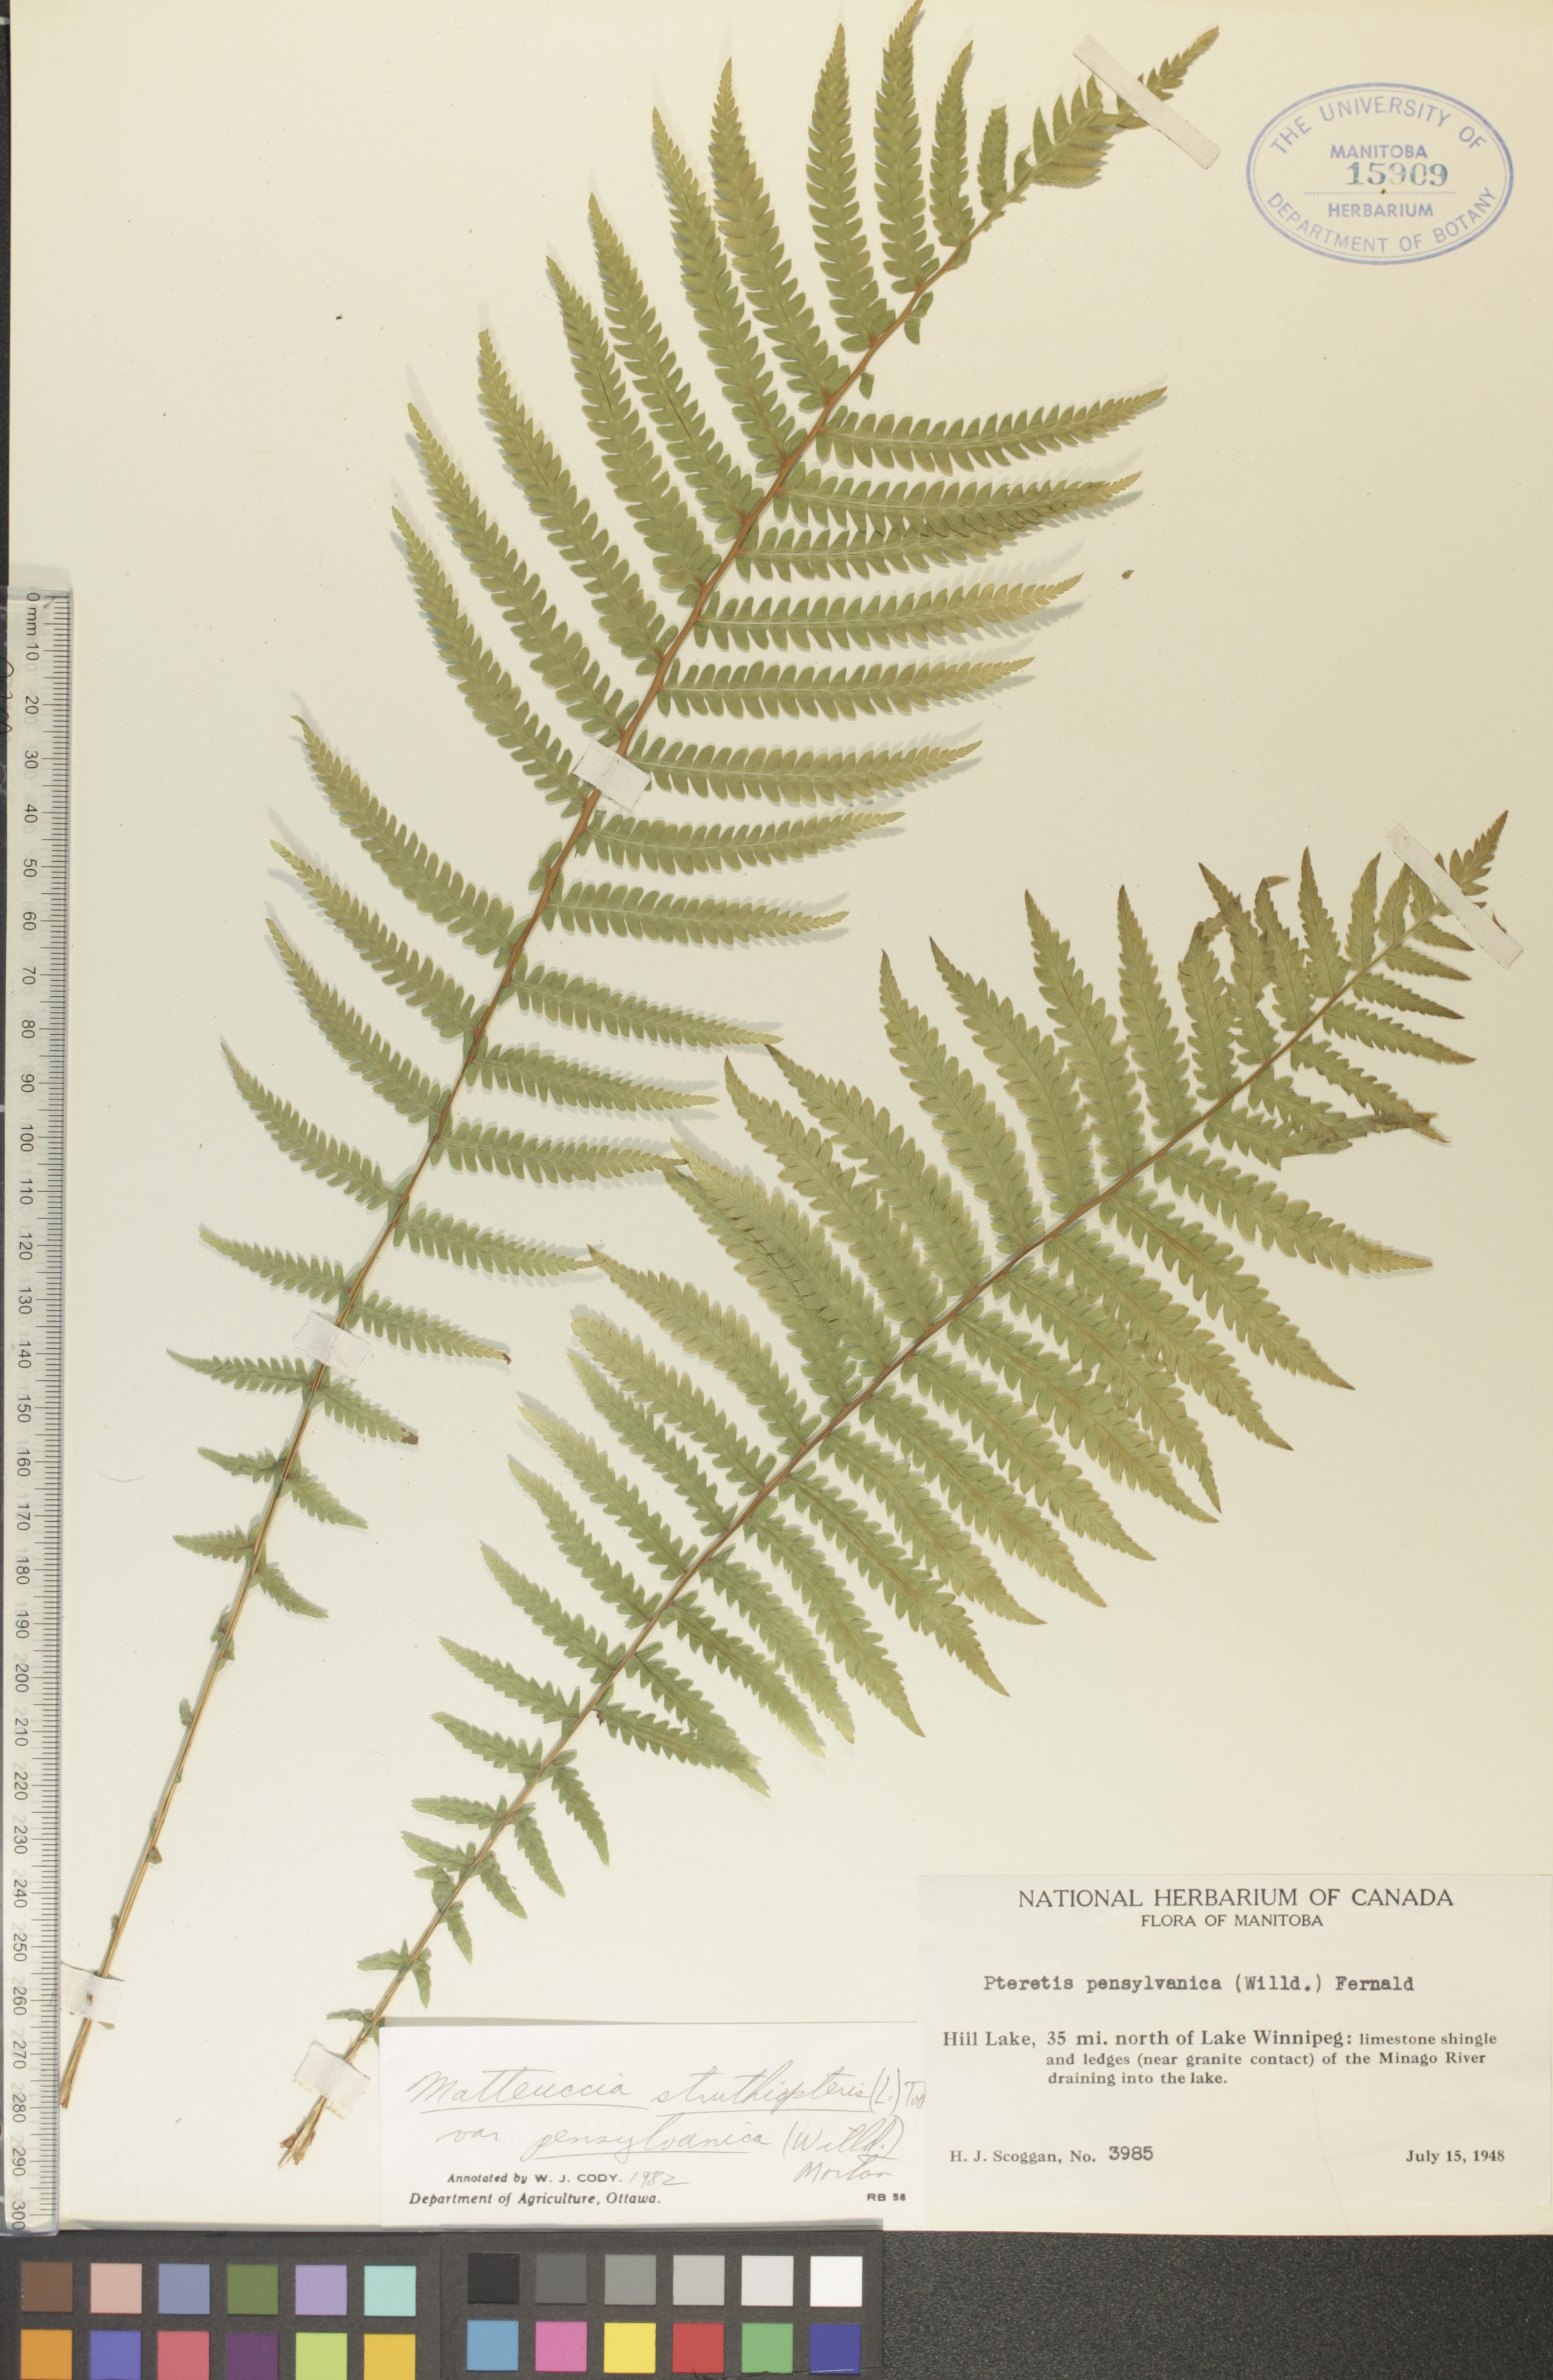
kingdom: Plantae
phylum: Tracheophyta
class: Polypodiopsida
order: Polypodiales
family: Onocleaceae
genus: Matteuccia
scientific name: Matteuccia pensylvanica
